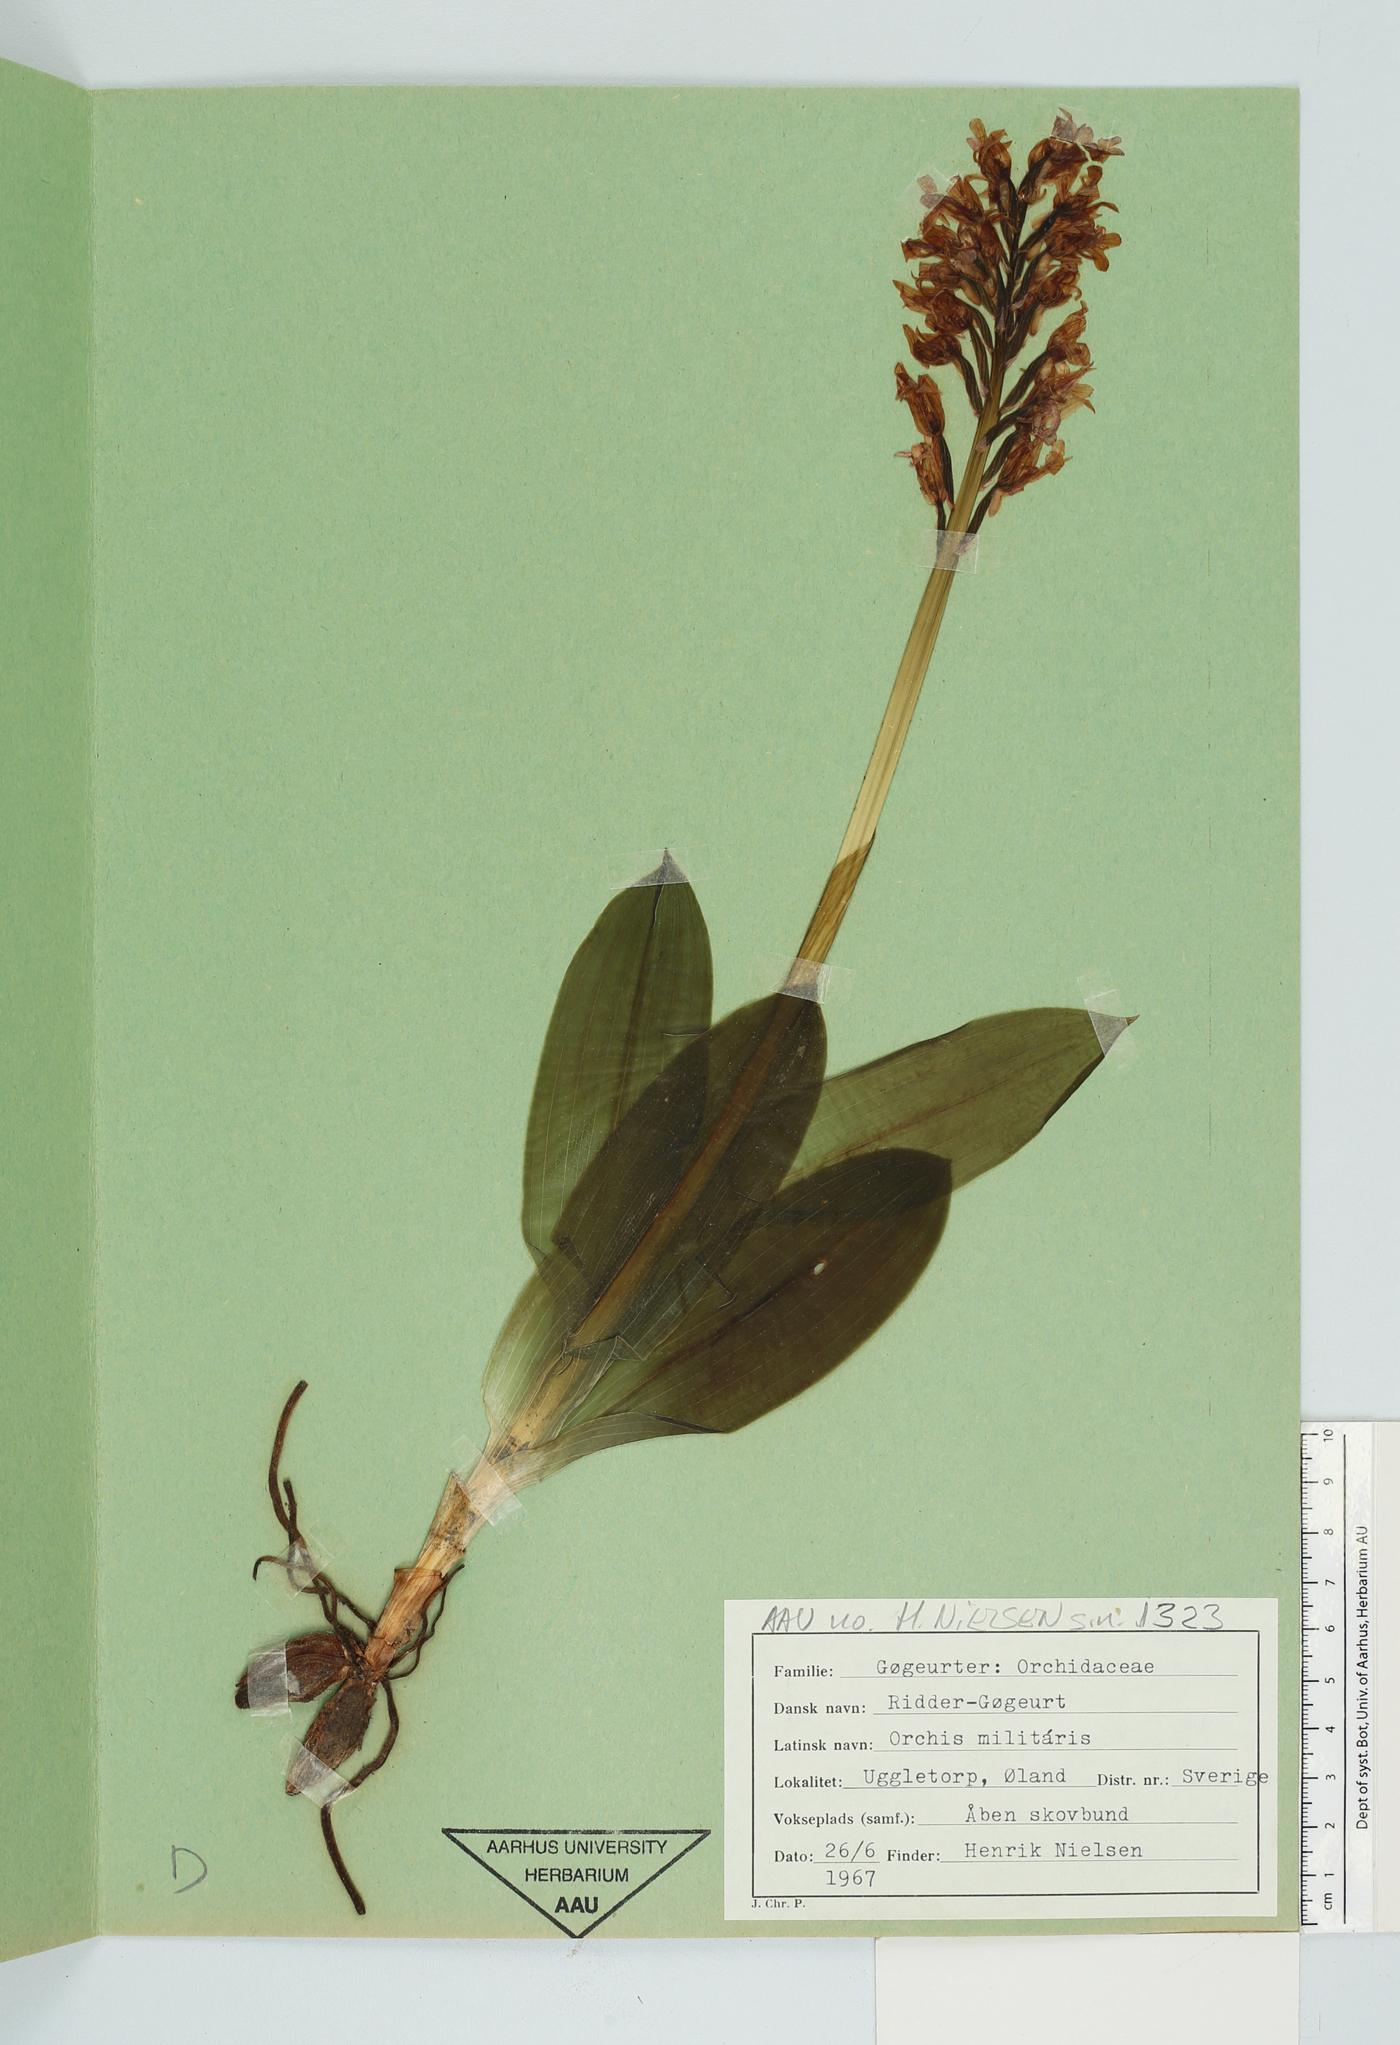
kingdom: Plantae
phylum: Tracheophyta
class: Liliopsida
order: Asparagales
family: Orchidaceae
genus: Orchis
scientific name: Orchis militaris
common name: Military orchid
